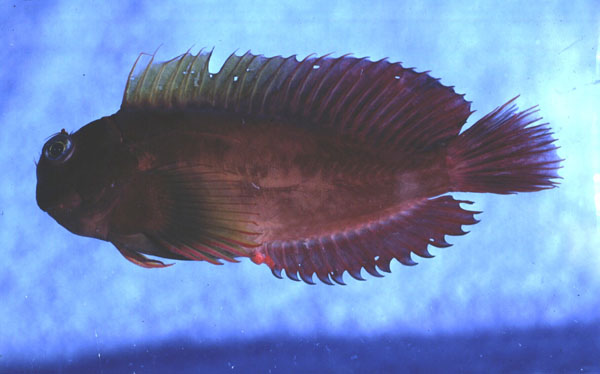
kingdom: Animalia
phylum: Chordata
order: Perciformes
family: Blenniidae
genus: Cirripectes
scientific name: Cirripectes
